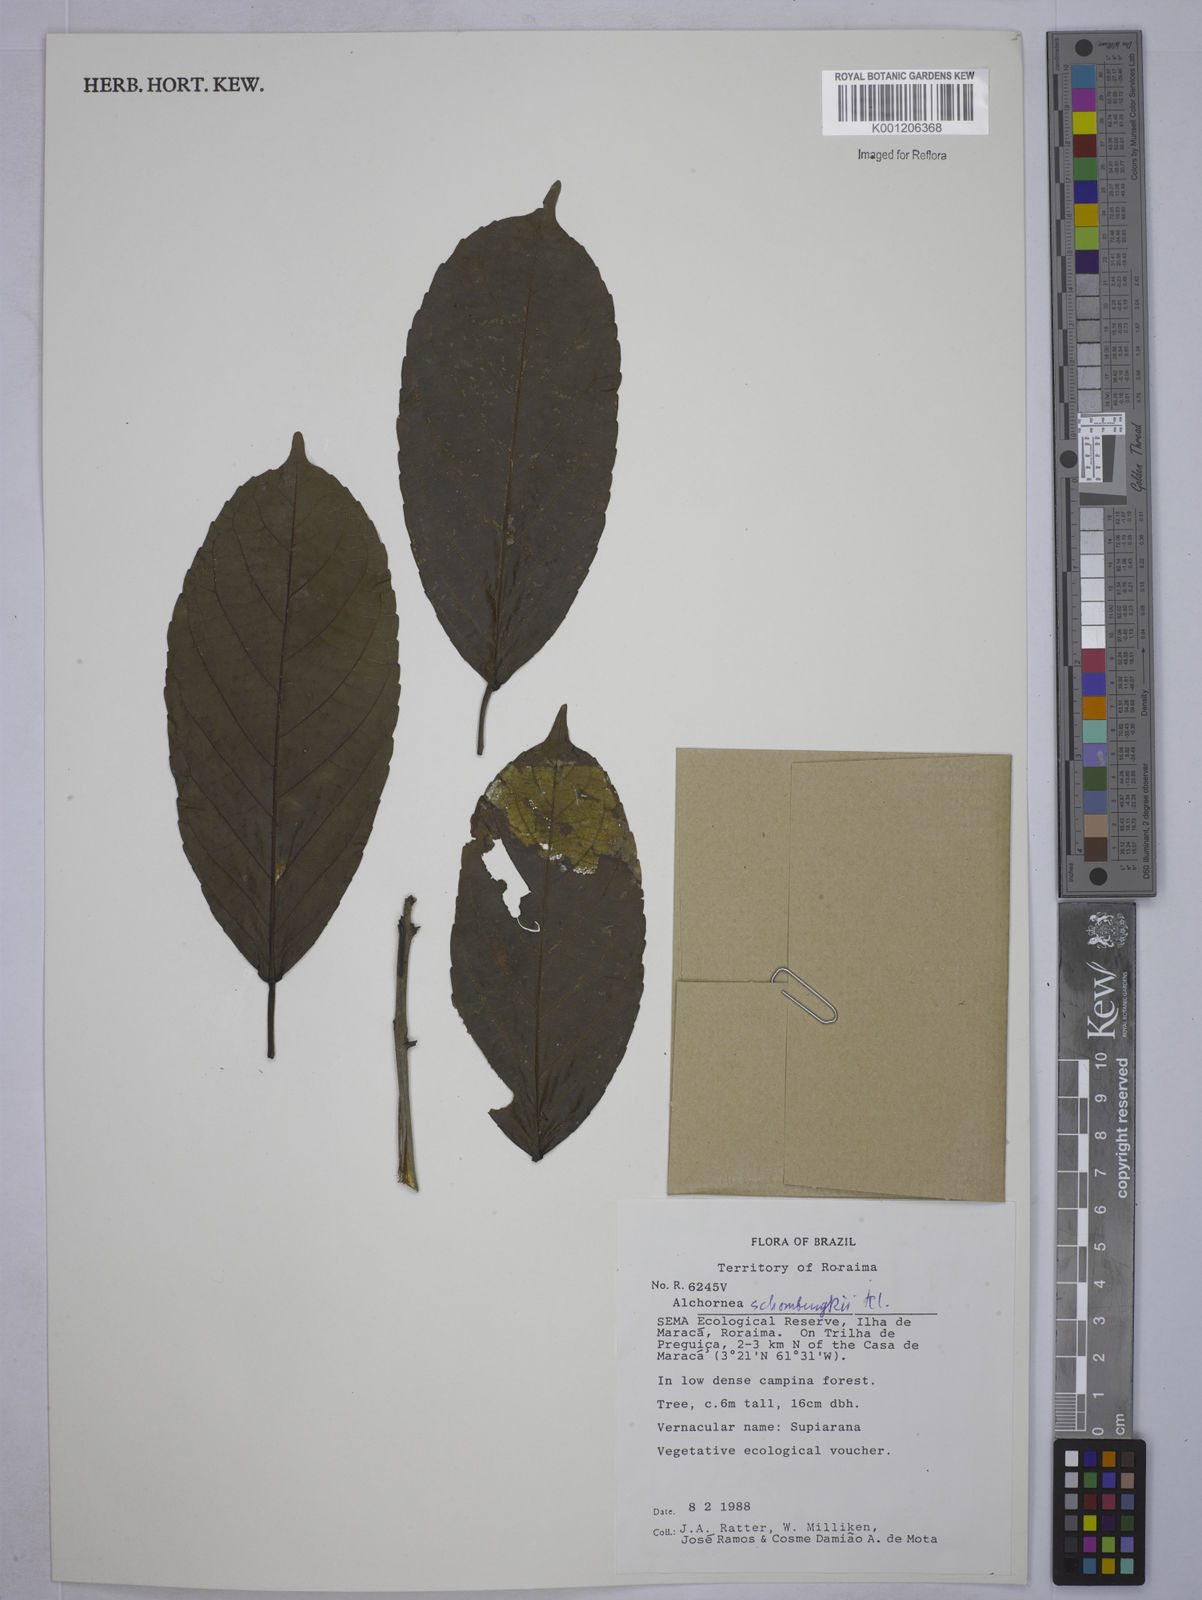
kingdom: Plantae
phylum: Tracheophyta
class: Magnoliopsida
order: Malpighiales
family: Euphorbiaceae
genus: Alchornea
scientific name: Alchornea discolor
